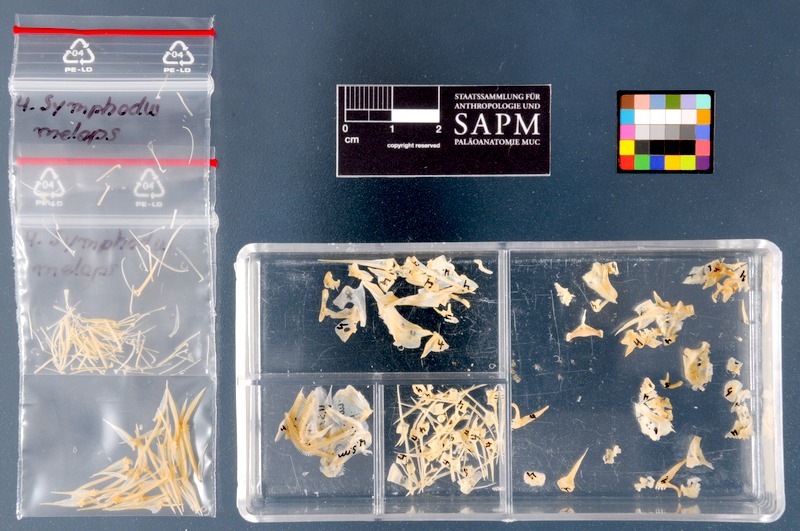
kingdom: Animalia
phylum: Chordata
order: Perciformes
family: Labridae
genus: Symphodus
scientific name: Symphodus melops
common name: Corkwing
